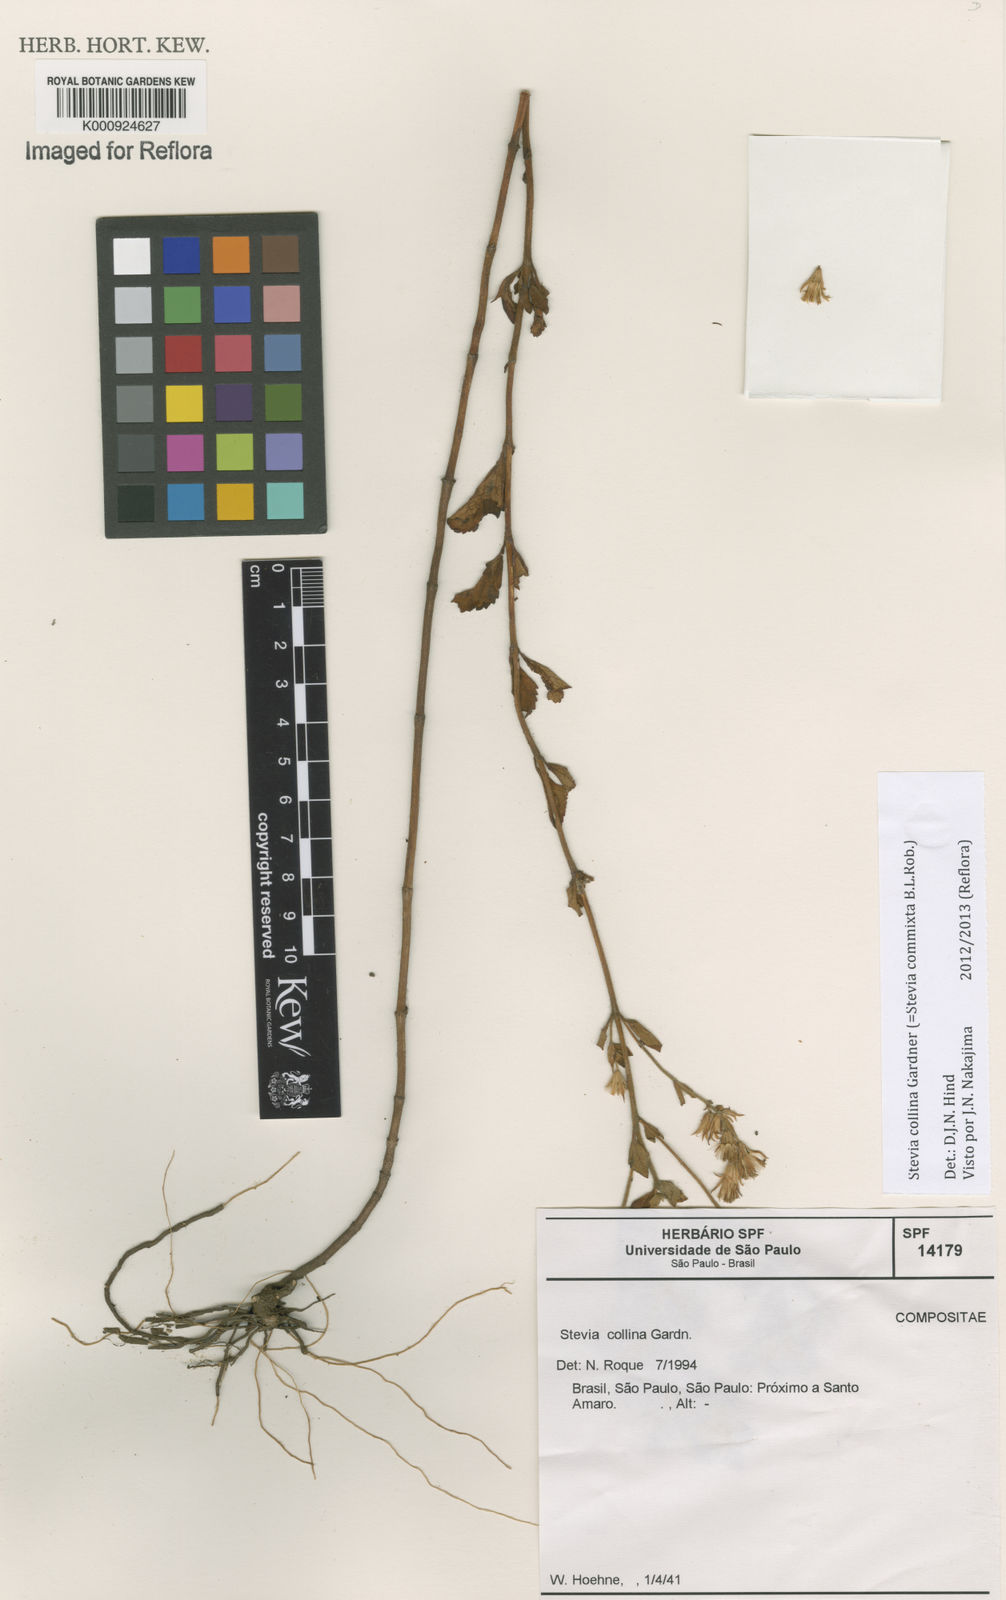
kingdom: Plantae
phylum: Tracheophyta
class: Magnoliopsida
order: Asterales
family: Asteraceae
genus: Stevia
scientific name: Stevia collina
